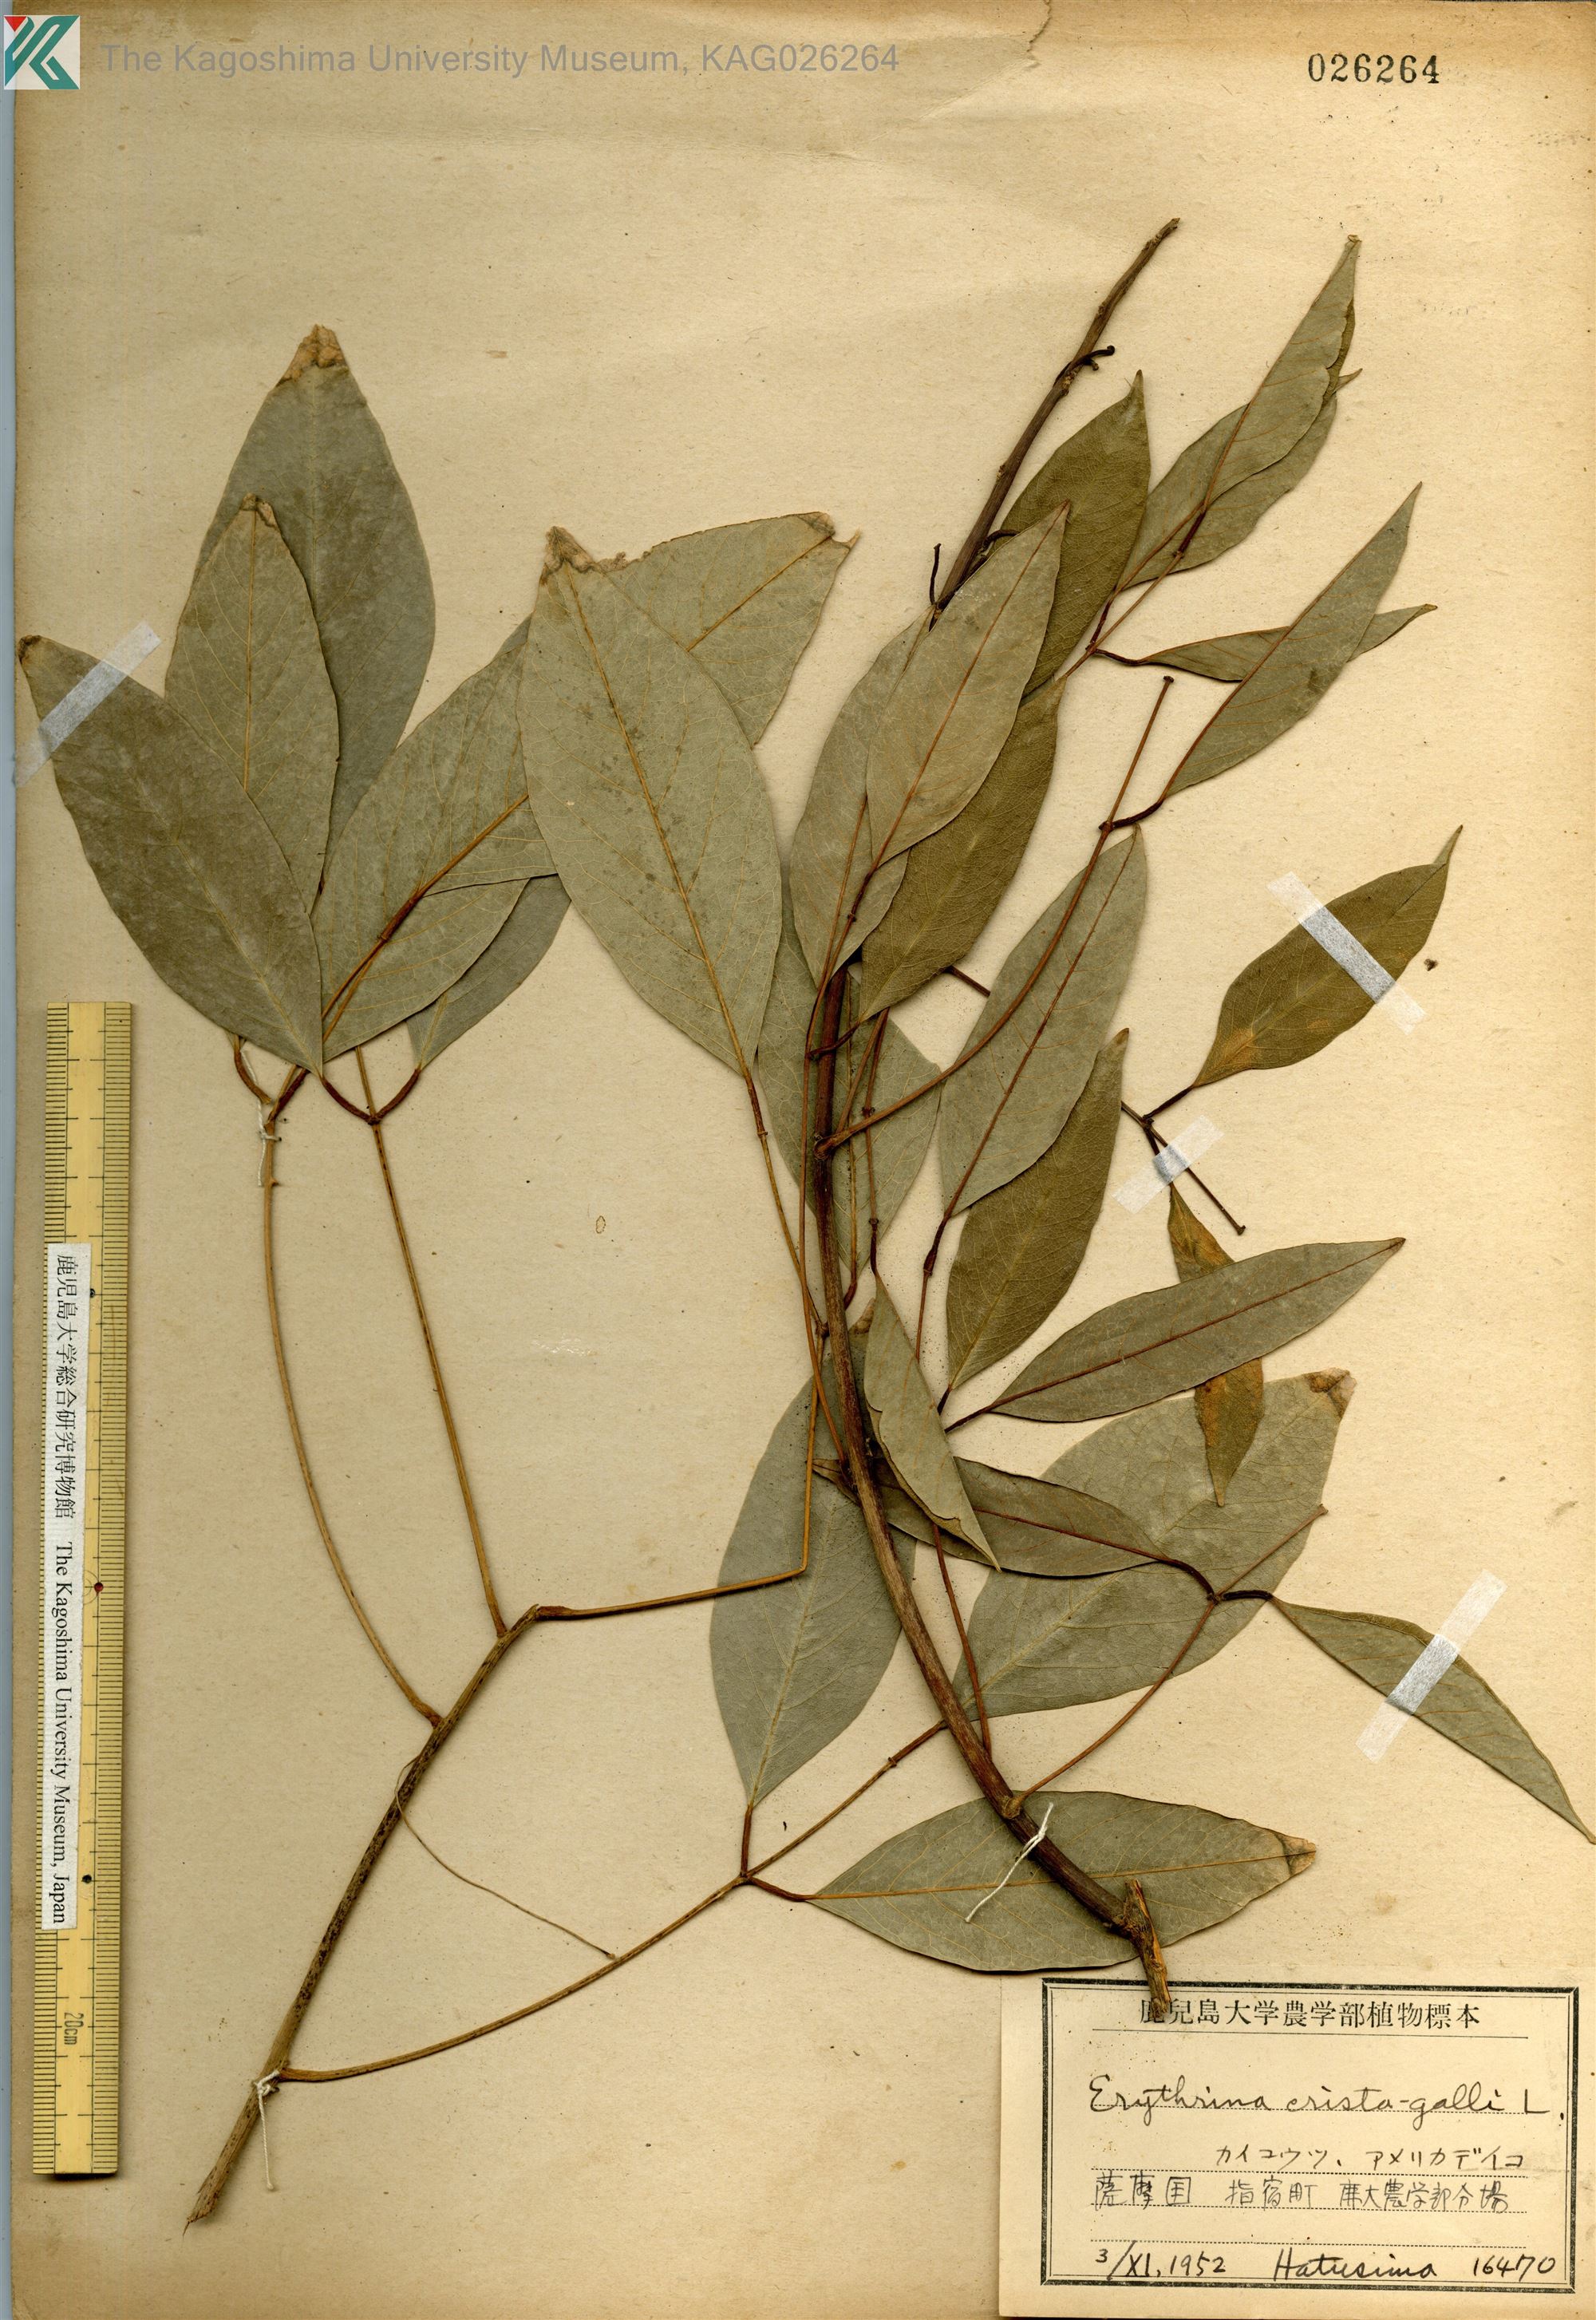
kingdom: Plantae
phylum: Tracheophyta
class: Magnoliopsida
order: Fabales
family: Fabaceae
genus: Erythrina
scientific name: Erythrina crista-galli
